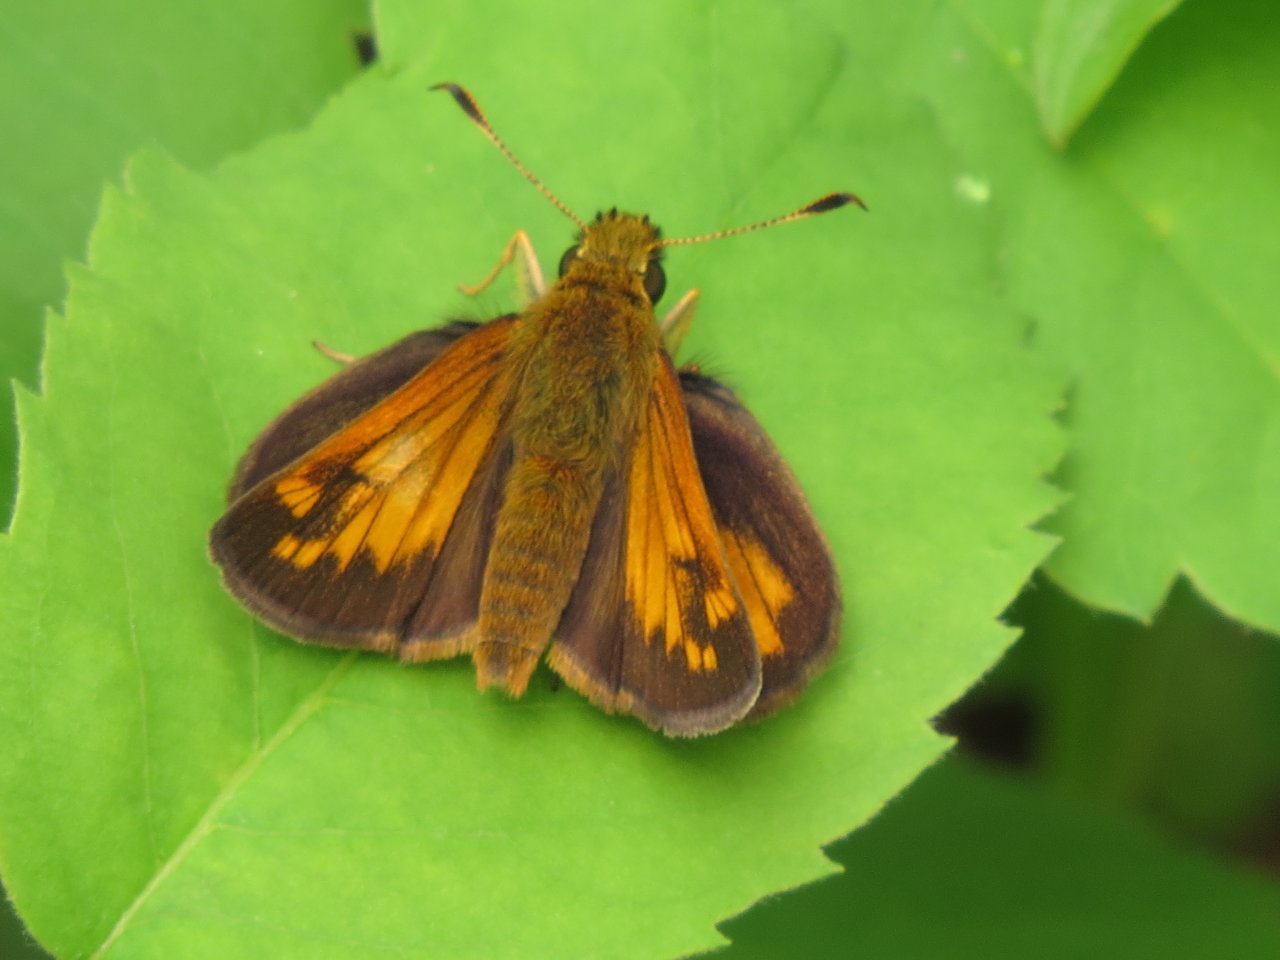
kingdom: Animalia
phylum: Arthropoda
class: Insecta
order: Lepidoptera
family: Hesperiidae
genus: Lon
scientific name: Lon hobomok
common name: Hobomok Skipper
